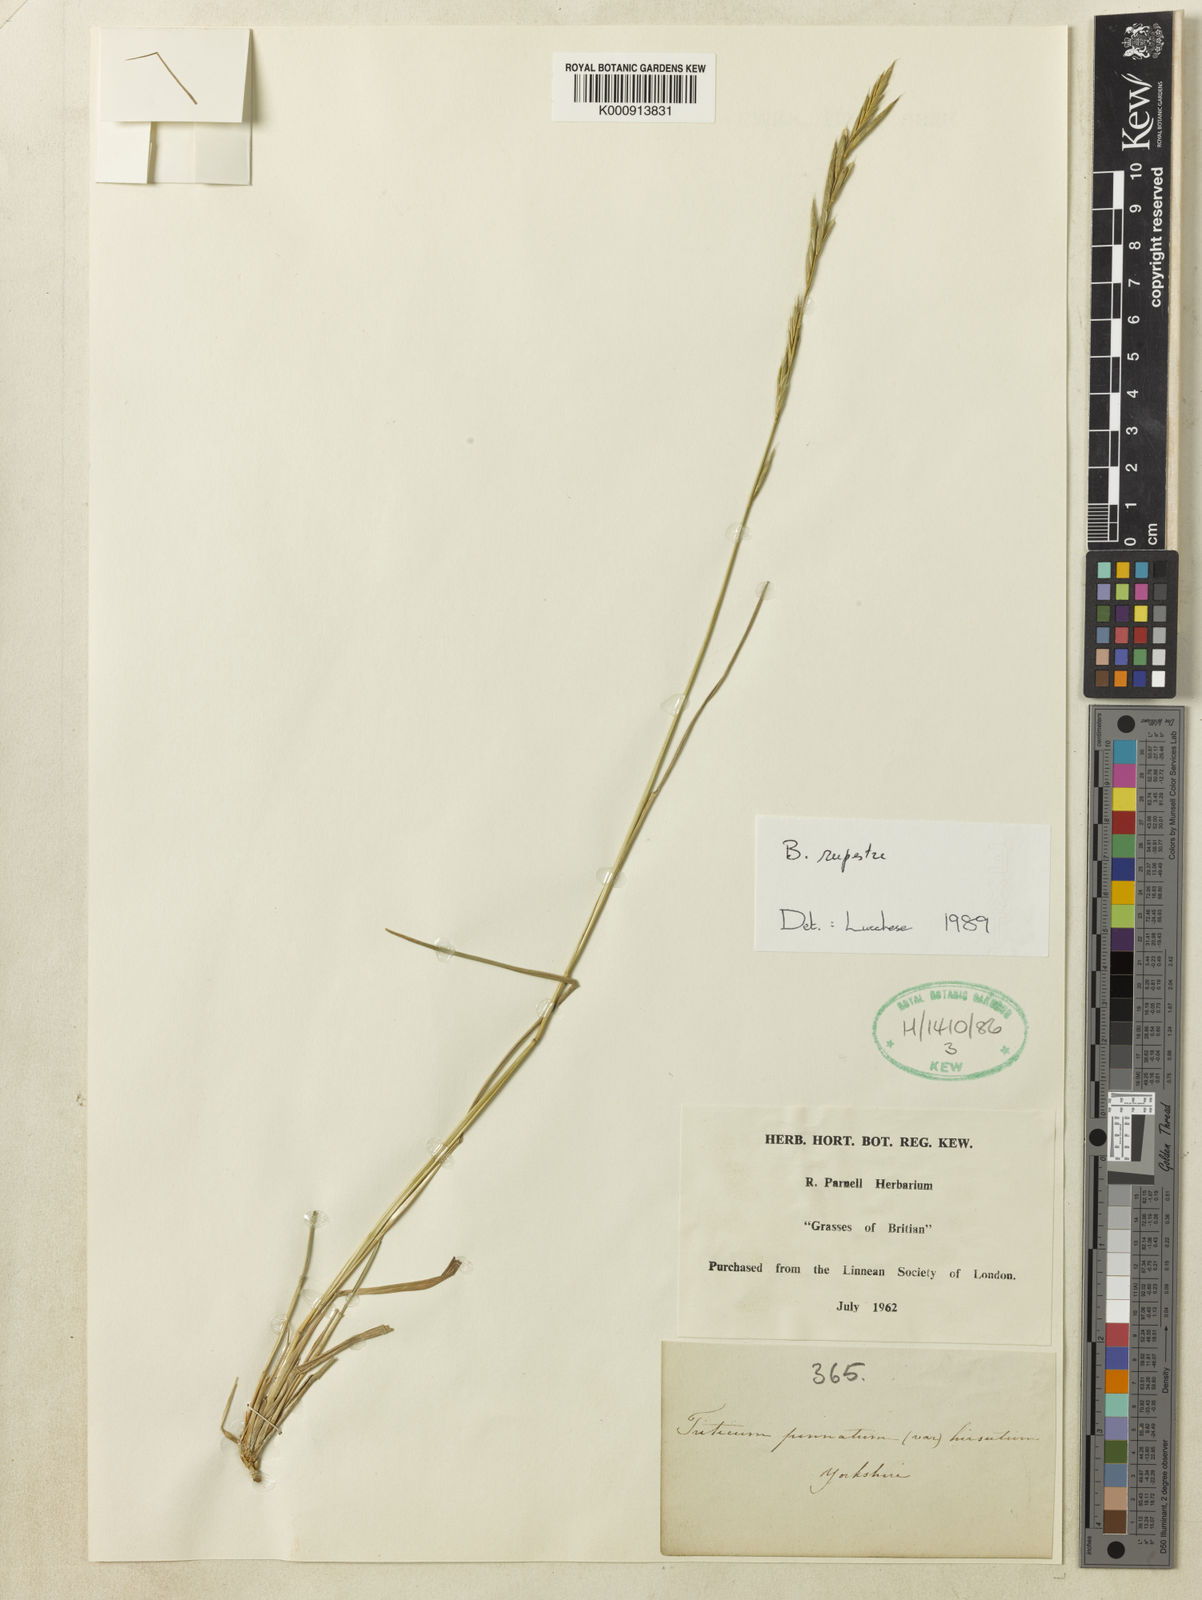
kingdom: Plantae
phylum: Tracheophyta
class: Liliopsida
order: Poales
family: Poaceae
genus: Brachypodium
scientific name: Brachypodium pinnatum
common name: Tor grass
